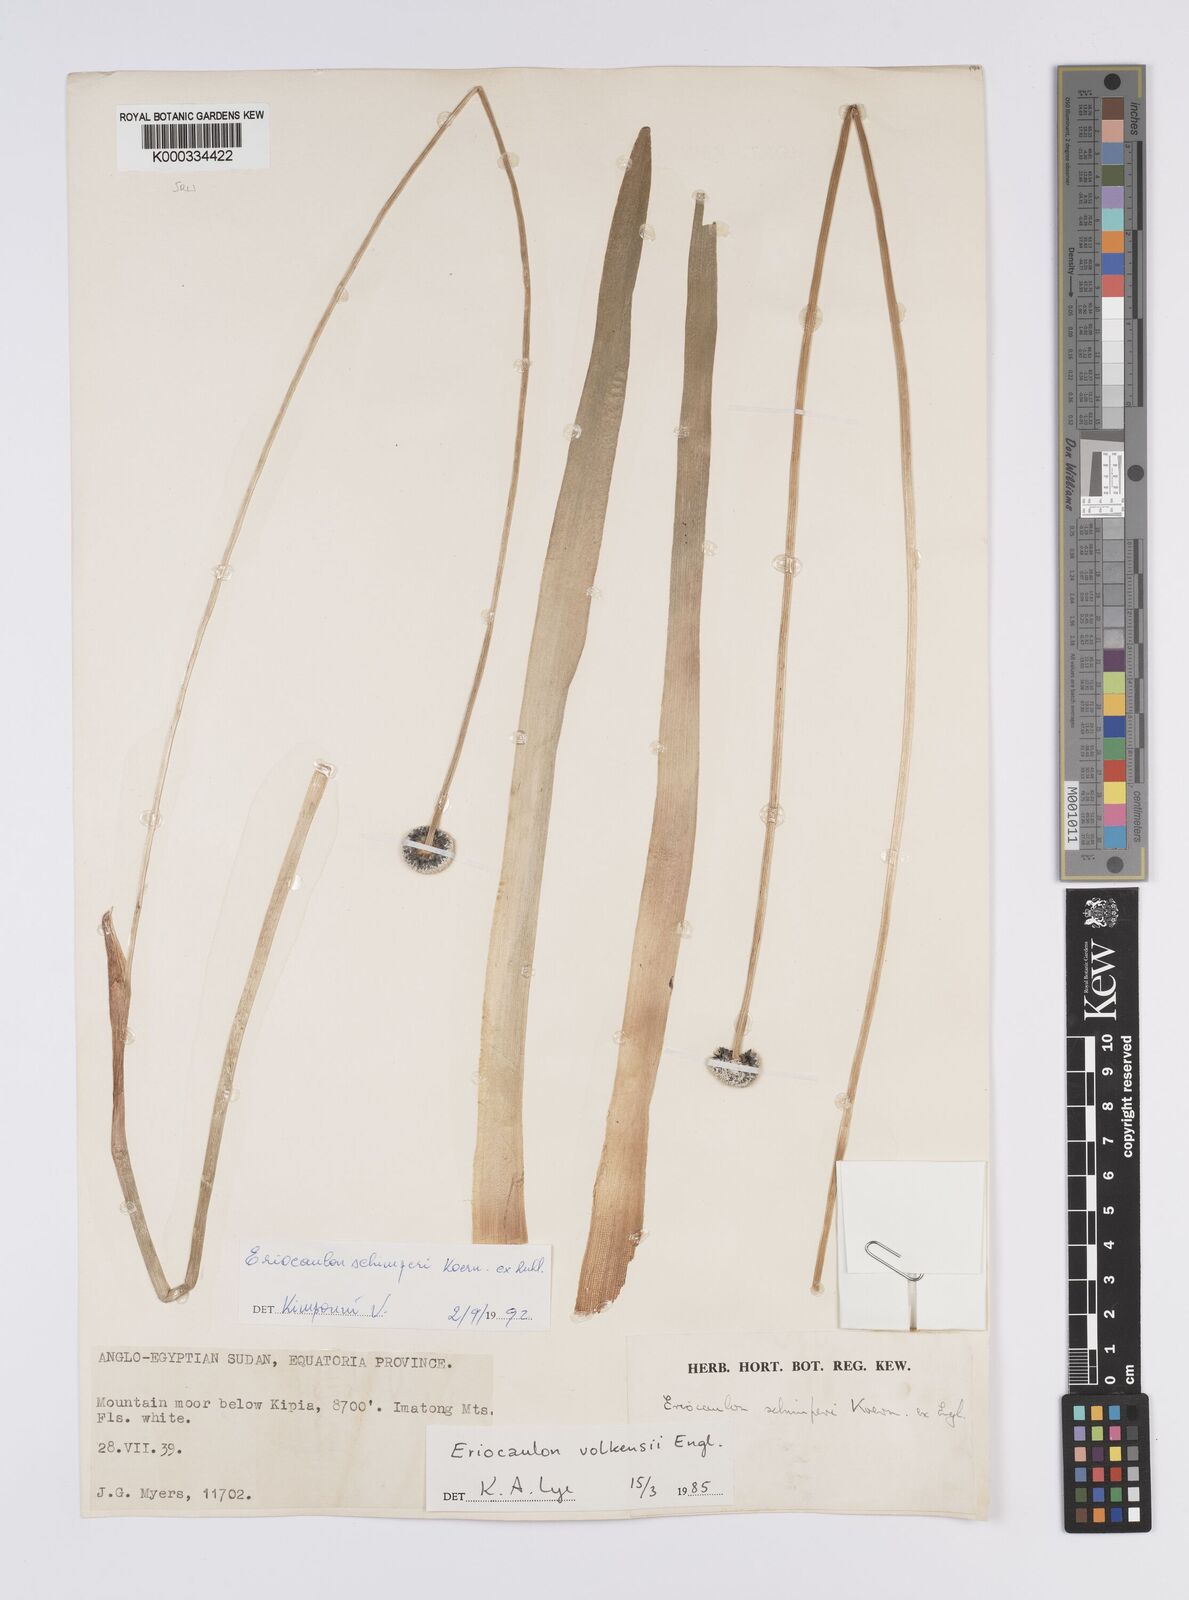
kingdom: Plantae
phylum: Tracheophyta
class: Liliopsida
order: Poales
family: Eriocaulaceae
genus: Eriocaulon
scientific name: Eriocaulon
